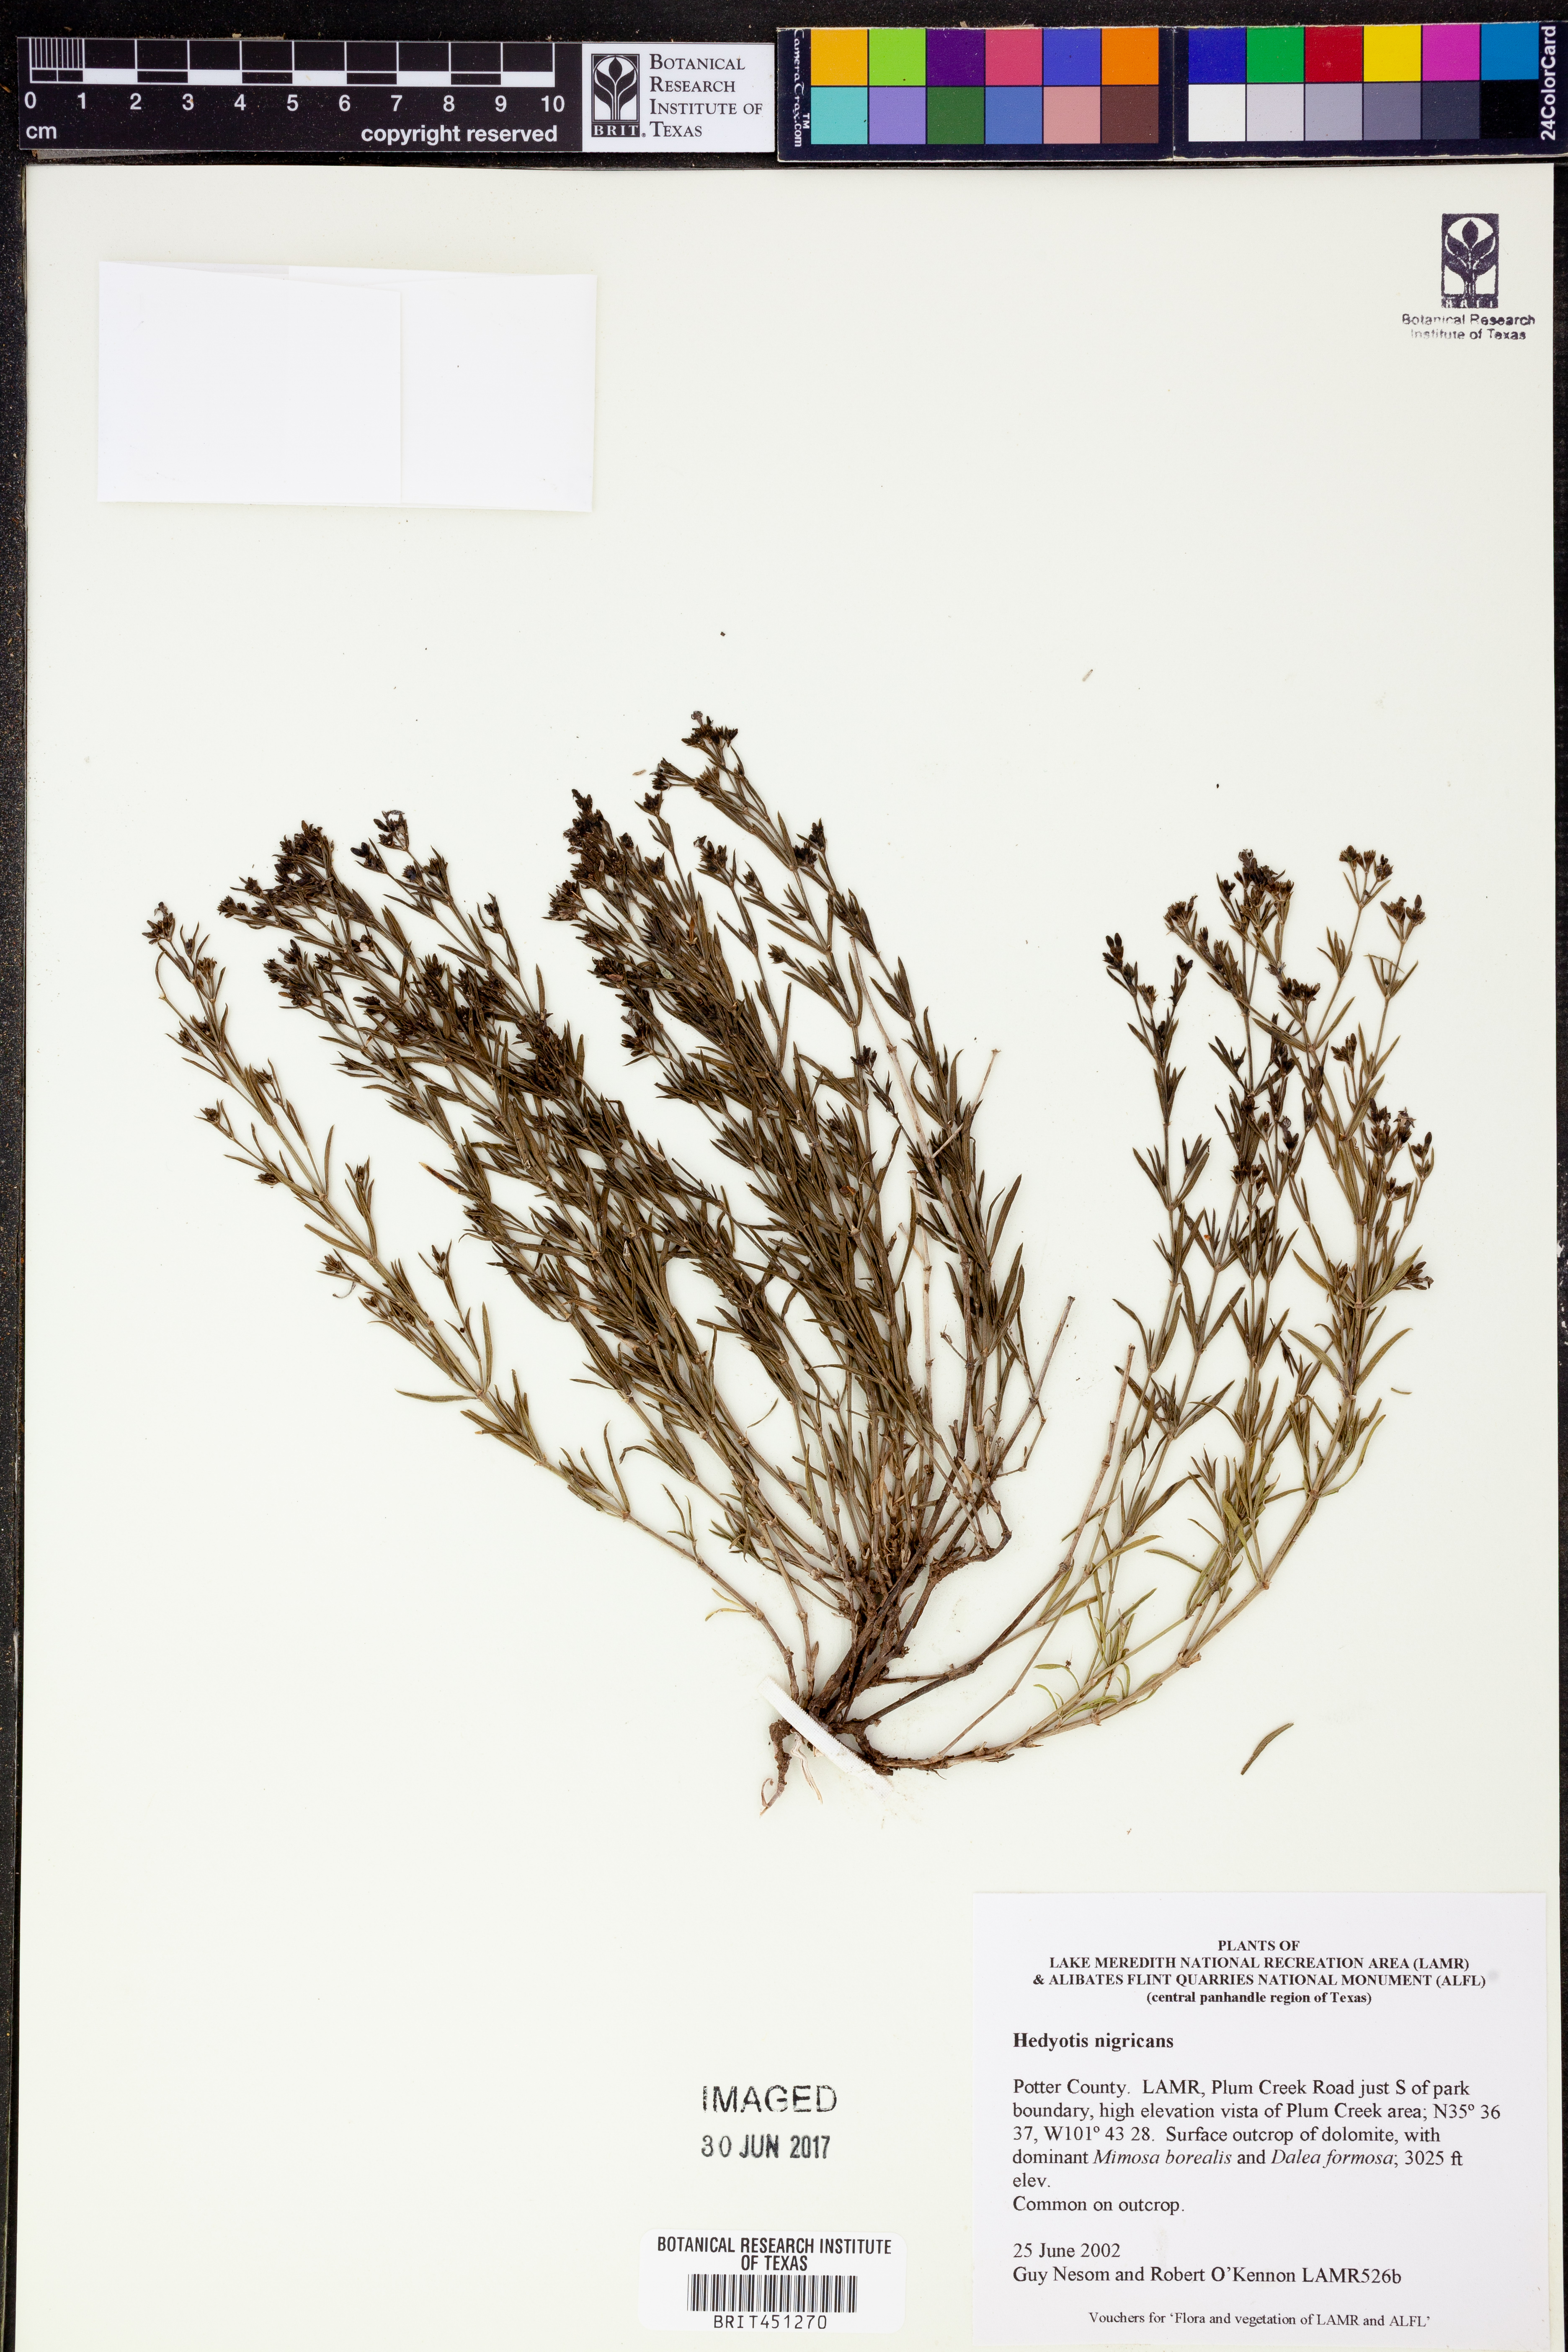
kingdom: Plantae
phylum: Tracheophyta
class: Magnoliopsida
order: Gentianales
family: Rubiaceae
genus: Stenaria
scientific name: Stenaria nigricans
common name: Diamondflowers
